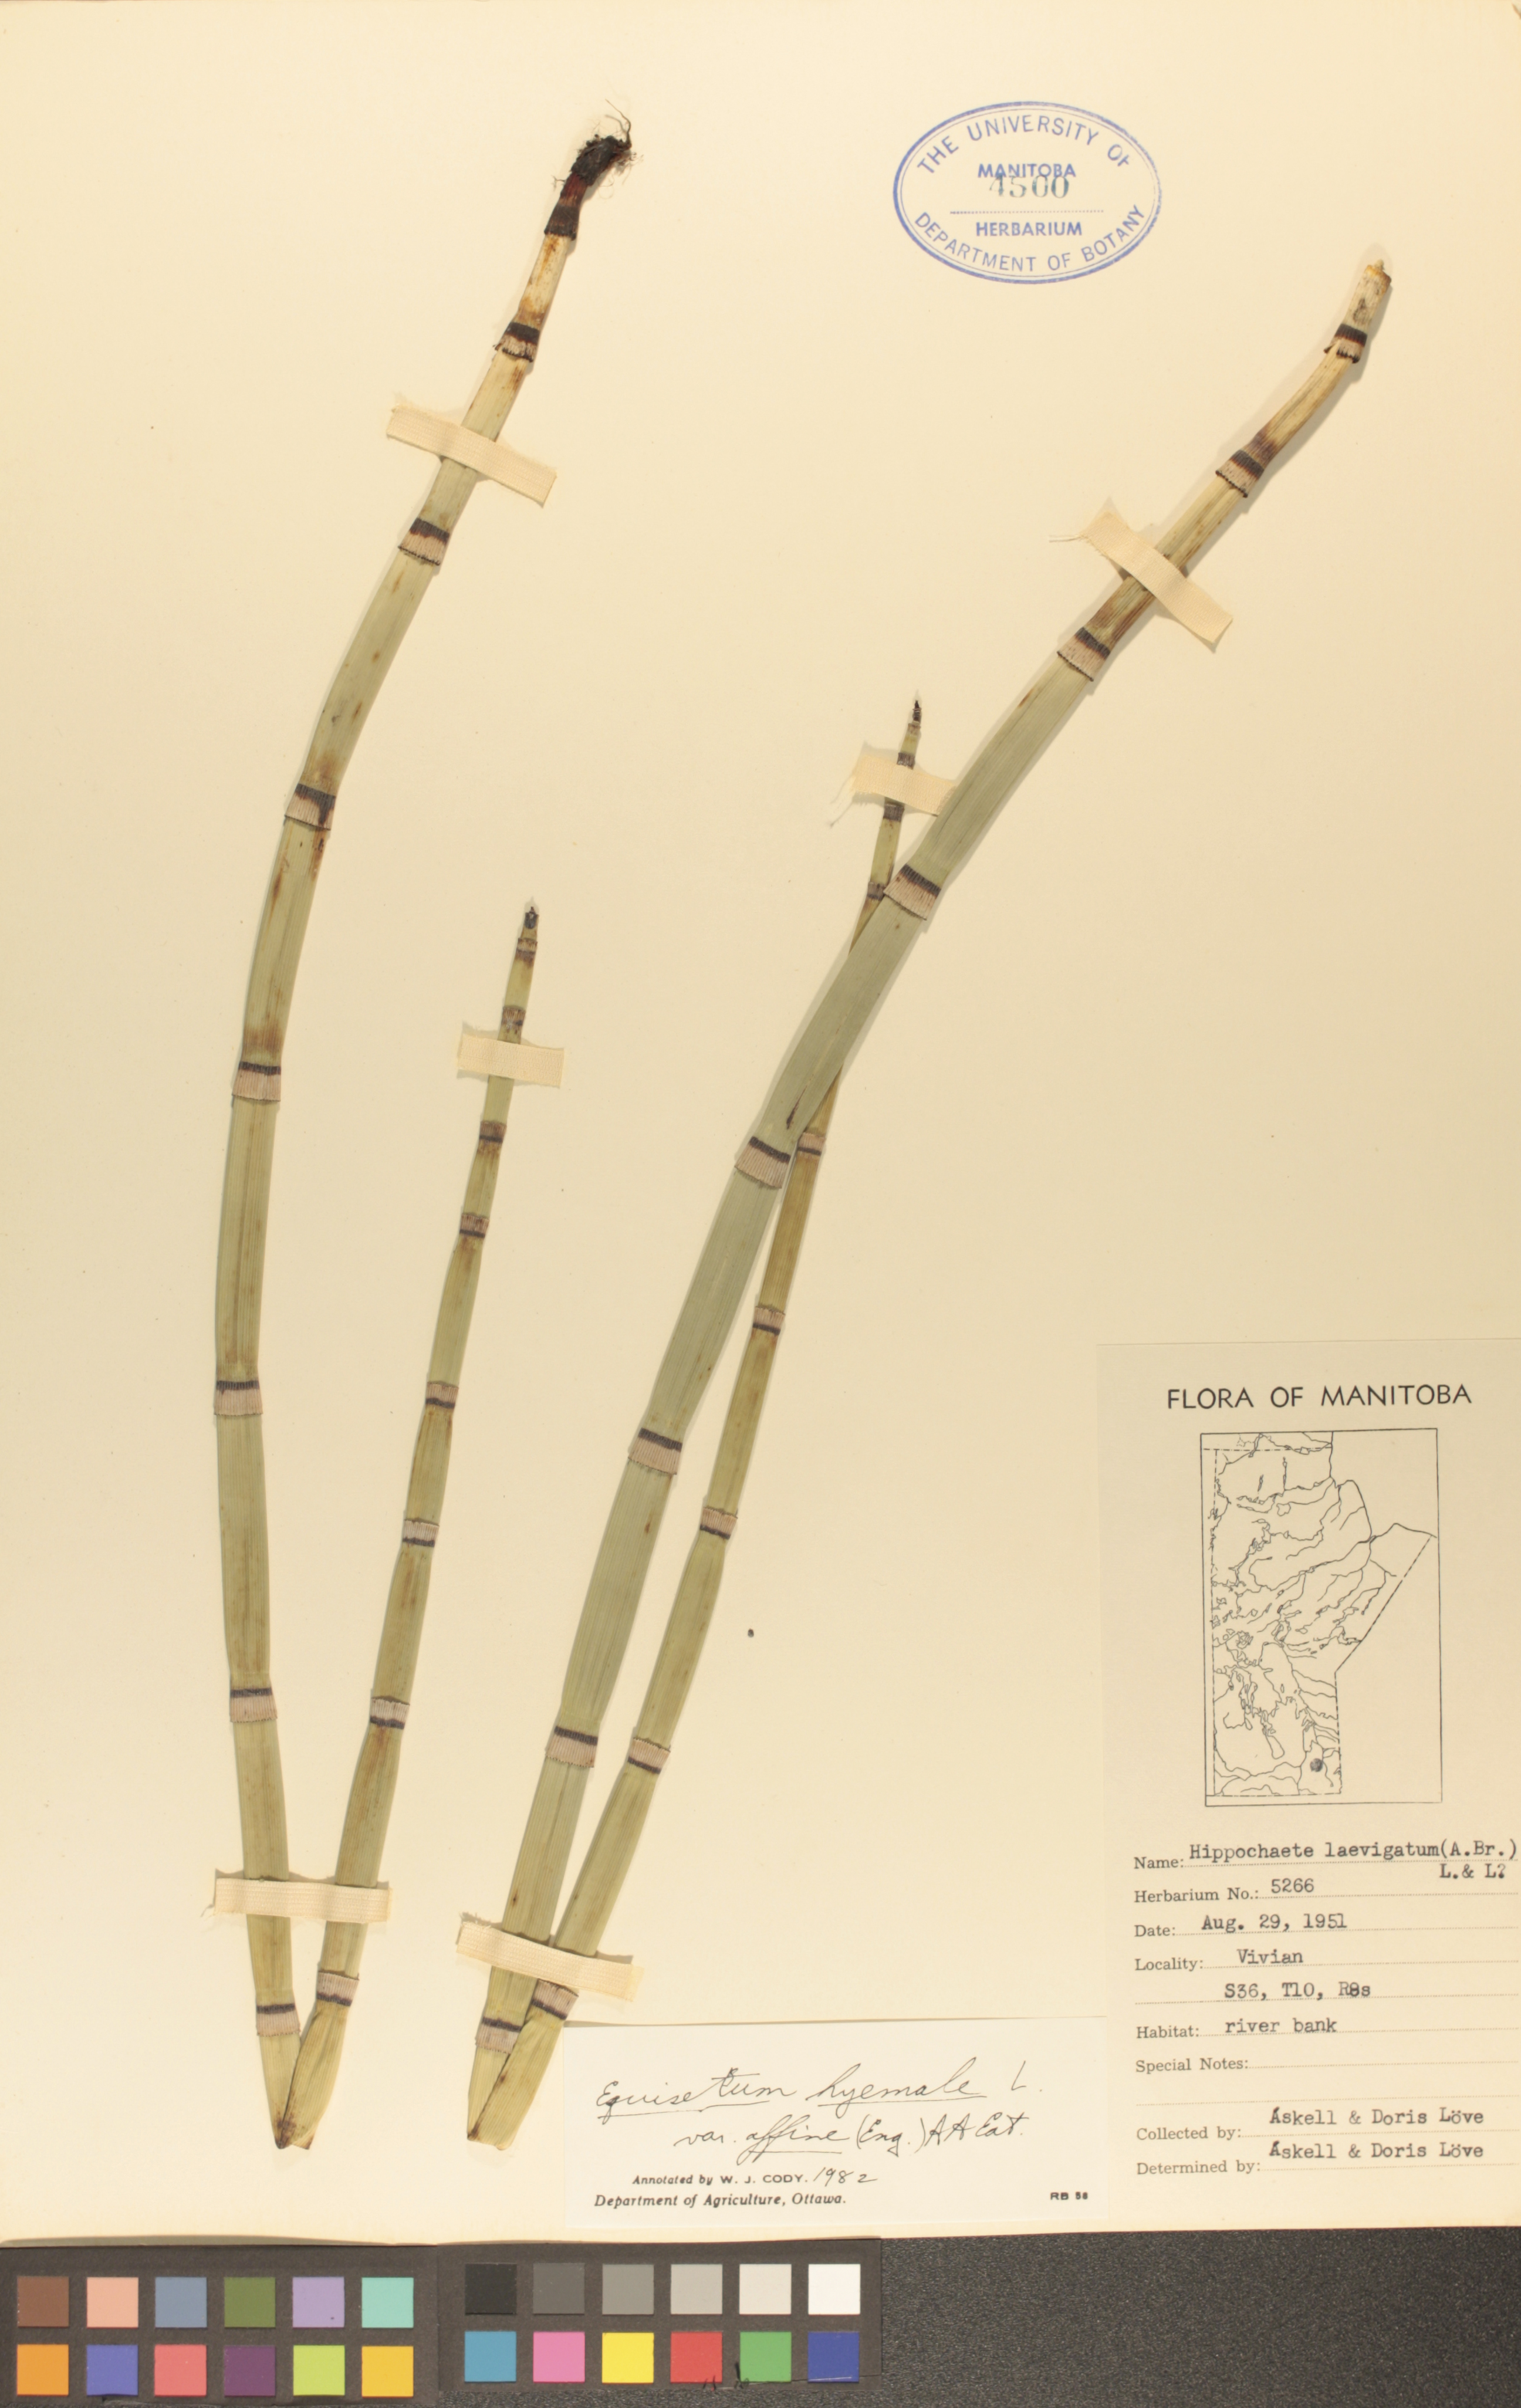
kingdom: Plantae
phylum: Tracheophyta
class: Polypodiopsida
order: Equisetales
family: Equisetaceae
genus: Equisetum
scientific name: Equisetum praealtum
